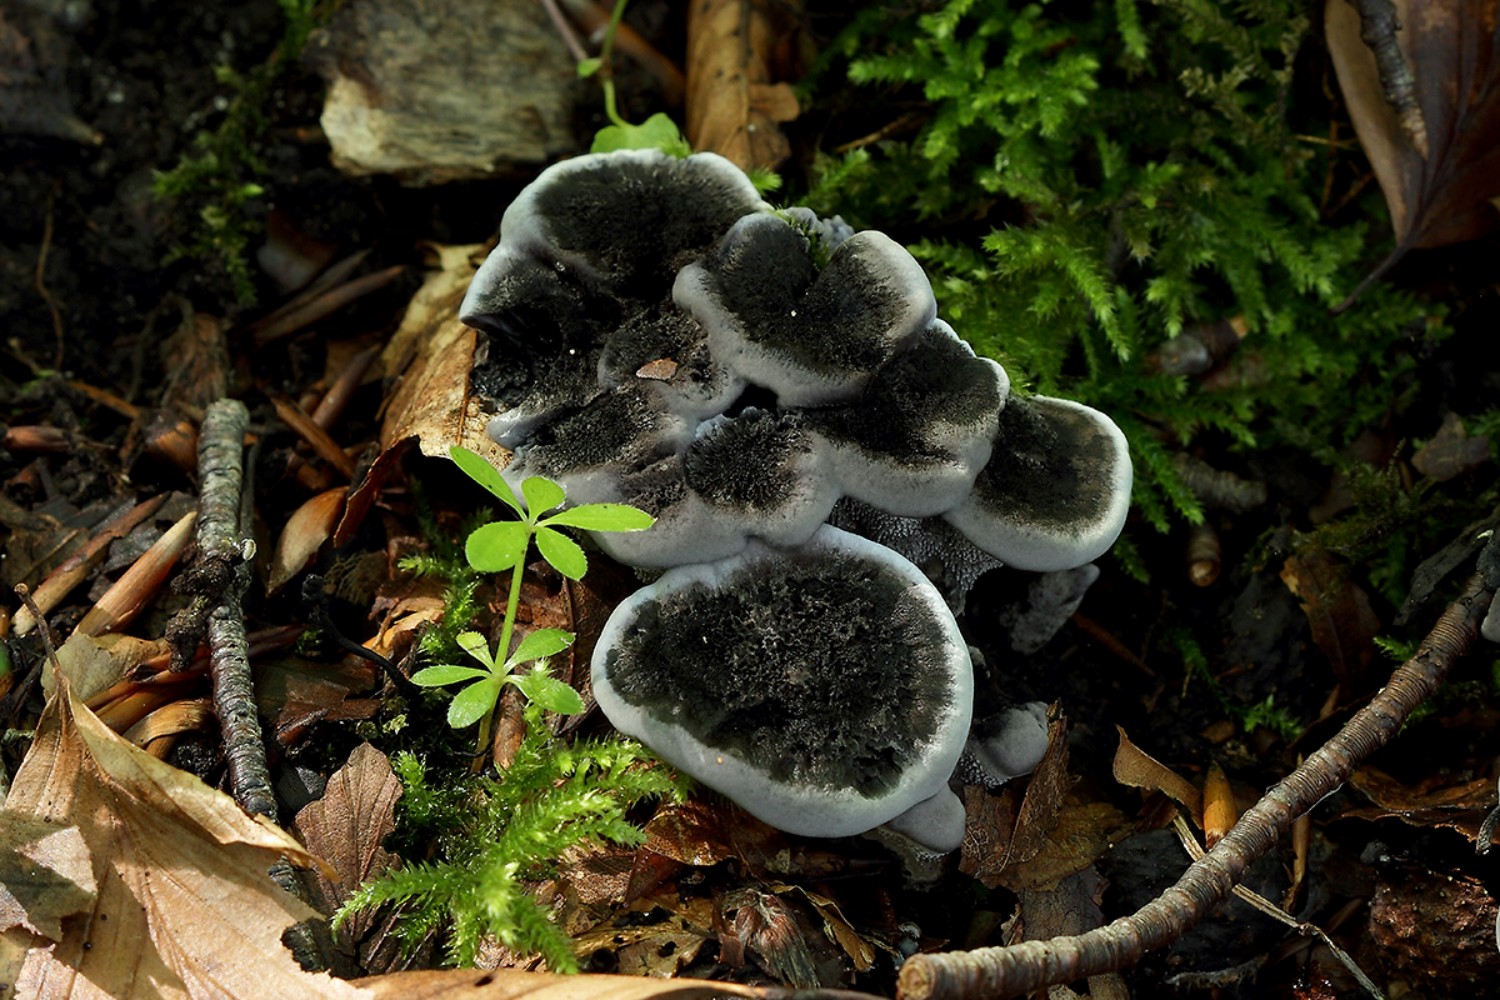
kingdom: Fungi
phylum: Basidiomycota
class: Agaricomycetes
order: Thelephorales
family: Thelephoraceae
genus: Phellodon
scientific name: Phellodon
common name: mørk duftpigsvamp
